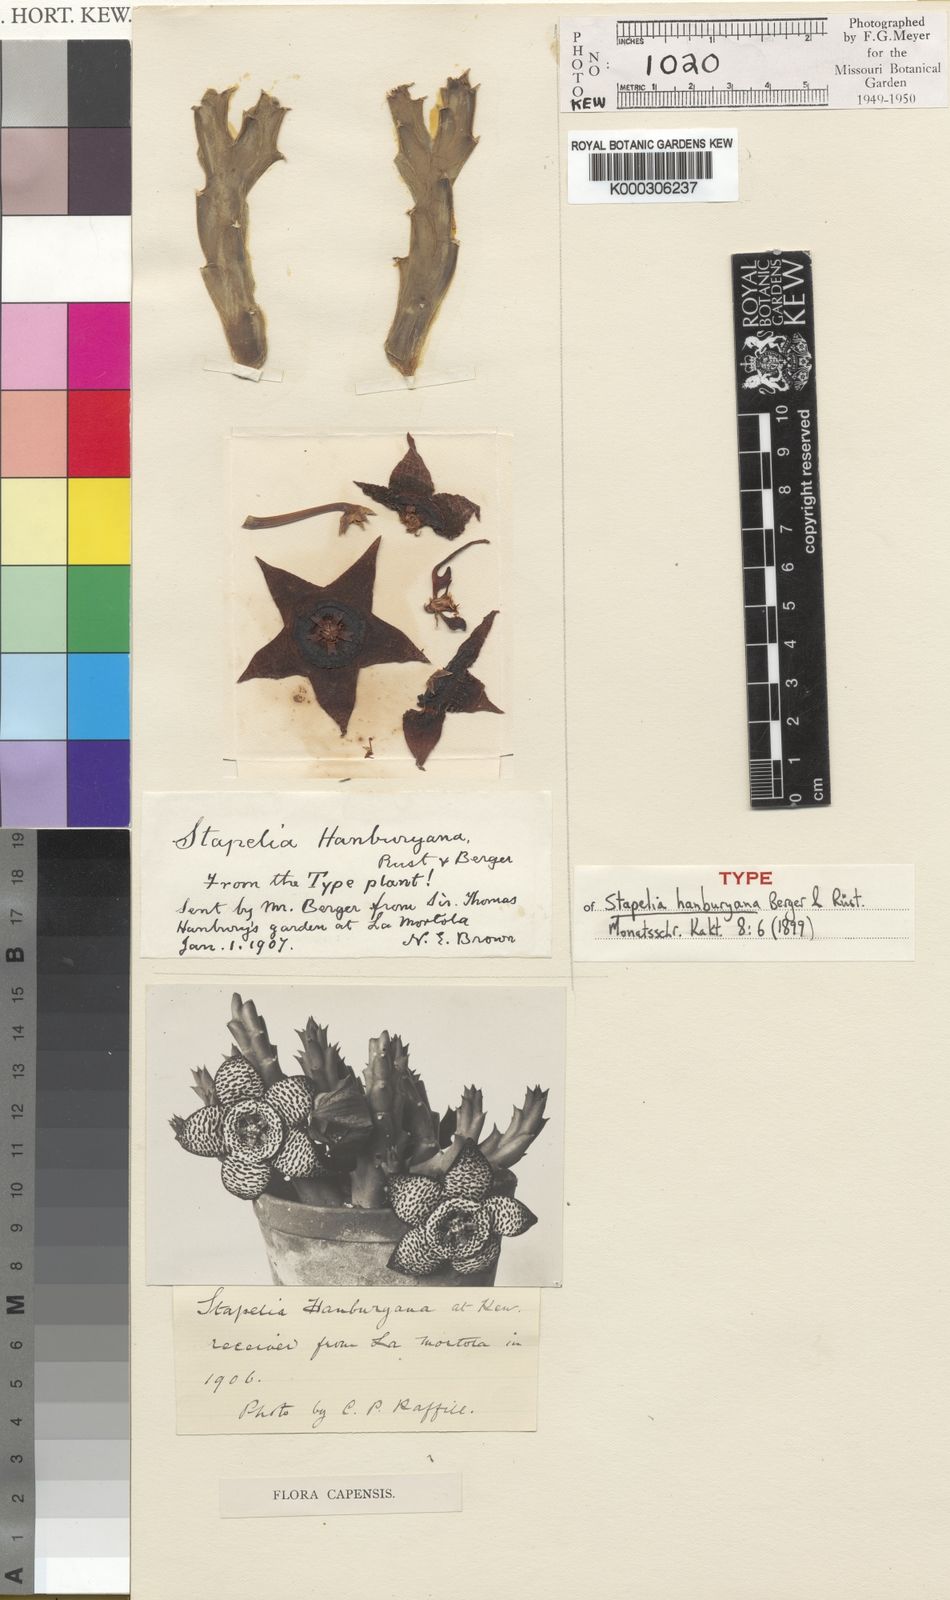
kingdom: Plantae
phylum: Tracheophyta
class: Magnoliopsida
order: Gentianales
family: Apocynaceae
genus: Stapelia
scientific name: Stapelia hanburyana
